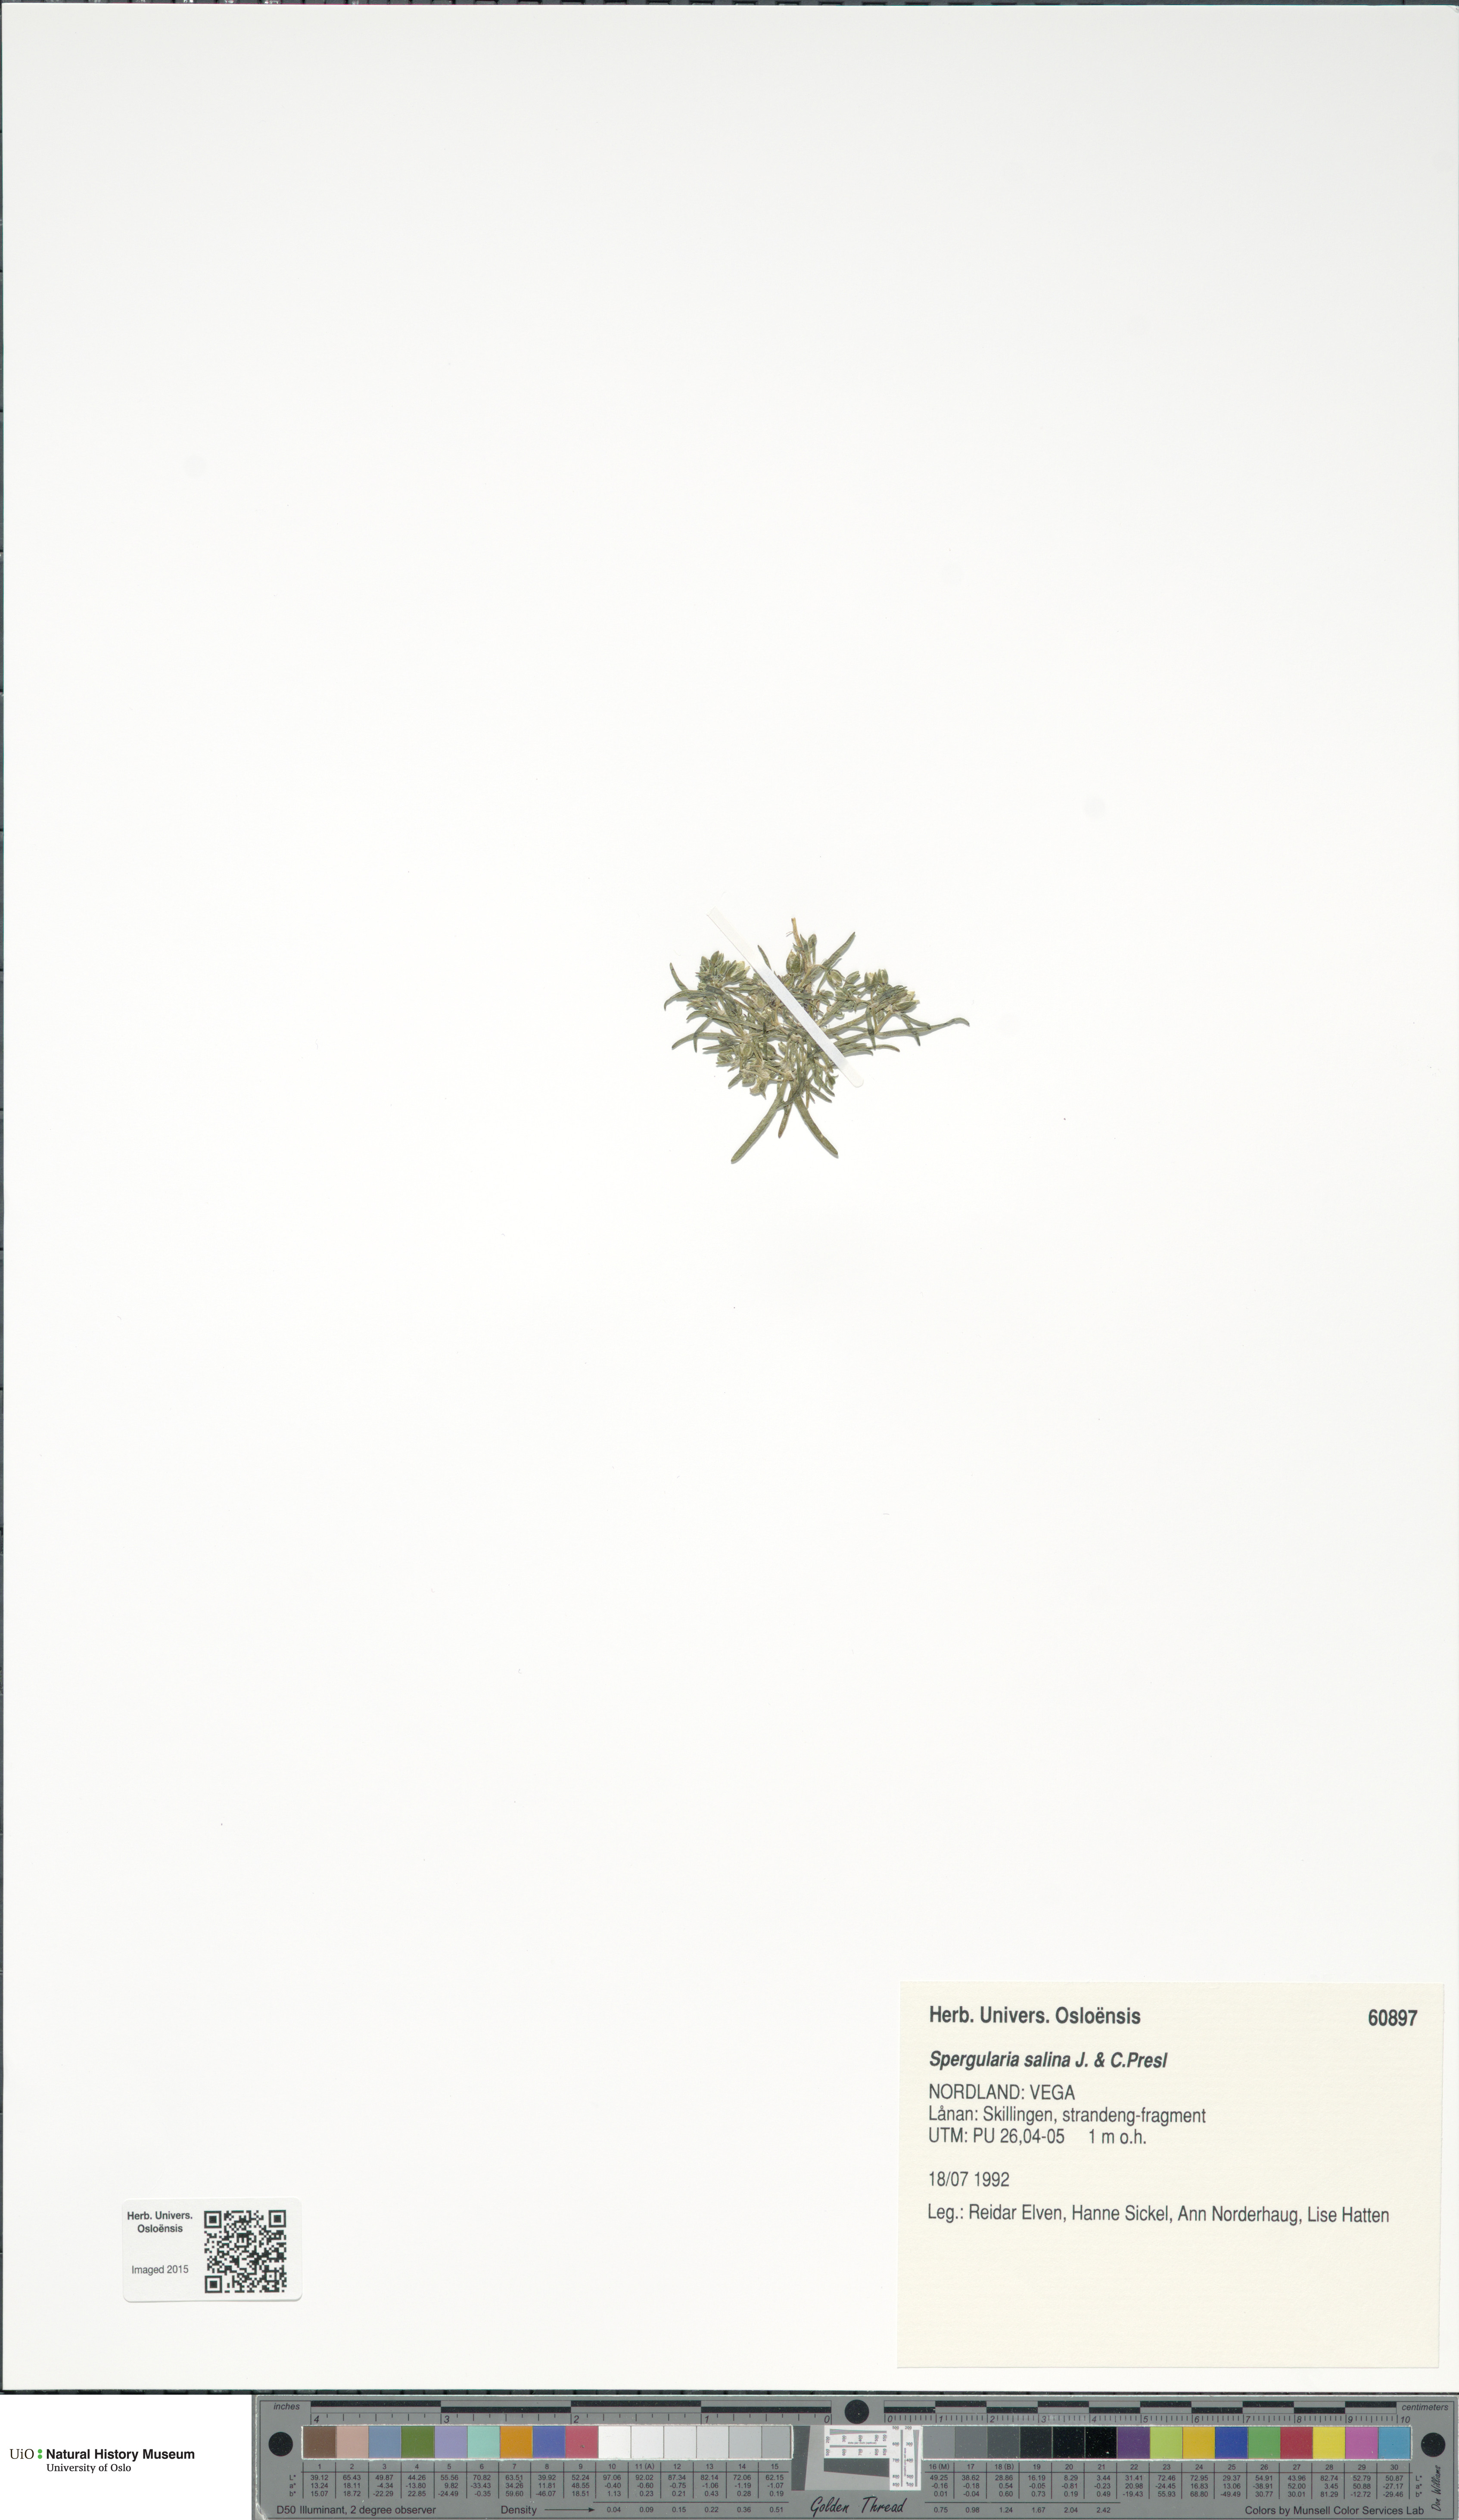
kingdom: Plantae
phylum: Tracheophyta
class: Magnoliopsida
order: Caryophyllales
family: Caryophyllaceae
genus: Spergularia
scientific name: Spergularia marina
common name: Lesser sea-spurrey
